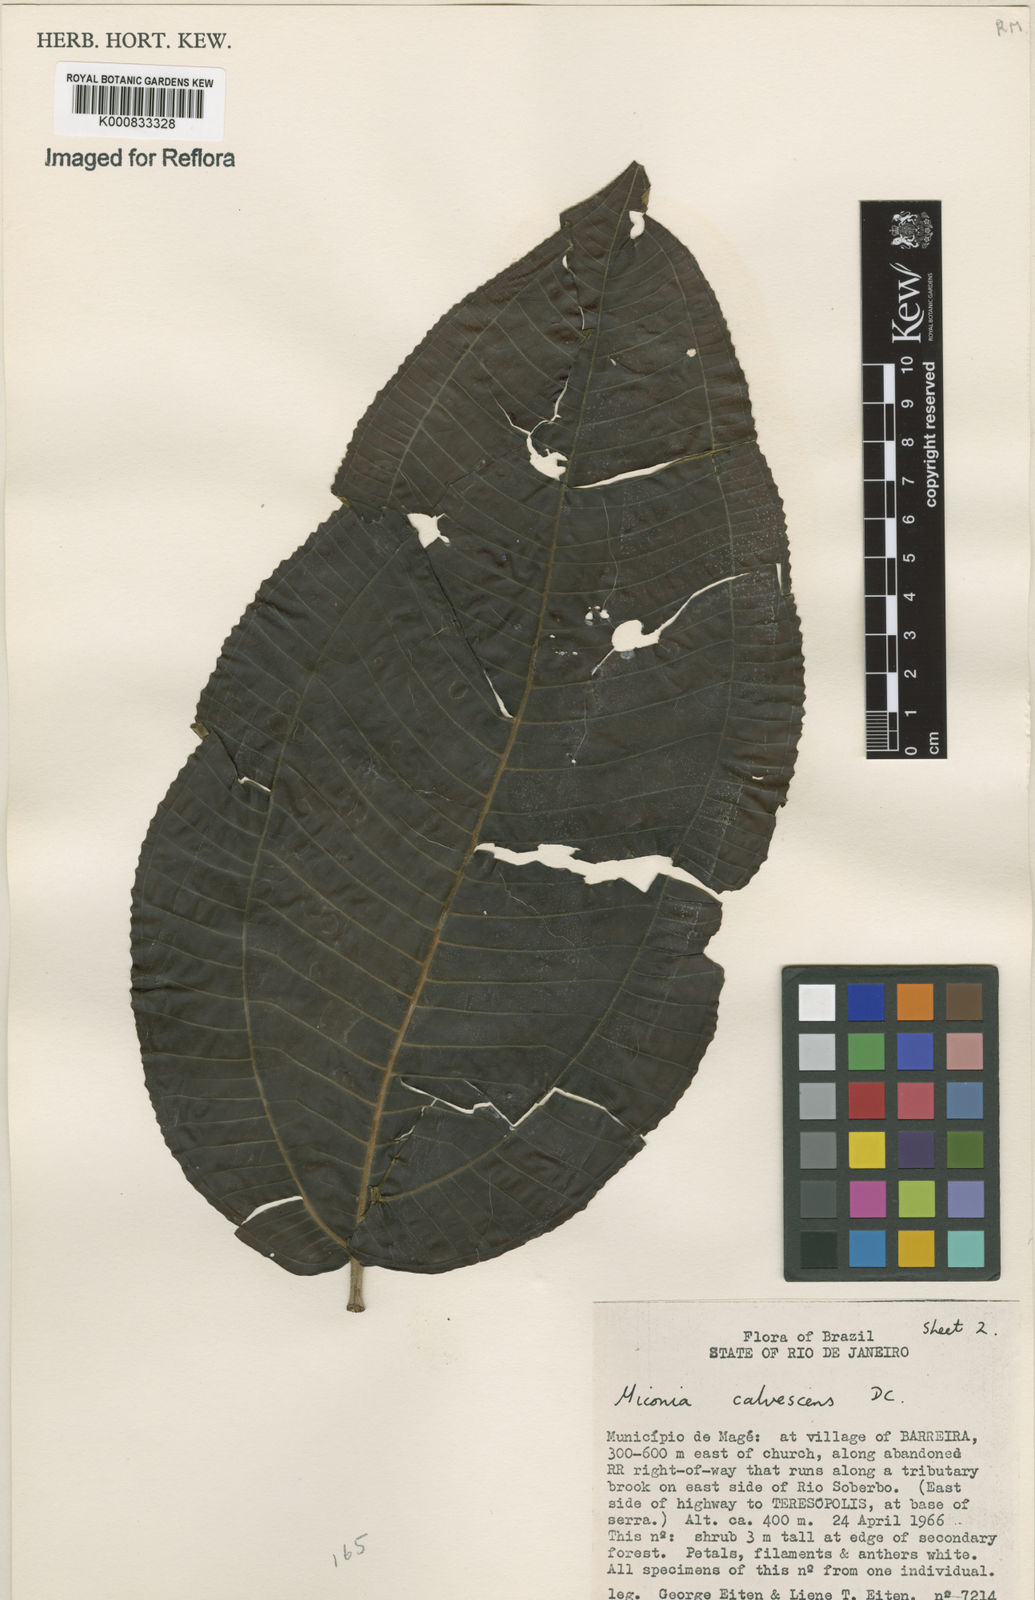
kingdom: Plantae
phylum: Tracheophyta
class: Magnoliopsida
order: Myrtales
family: Melastomataceae
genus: Miconia
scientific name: Miconia calvescens
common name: Purple plague
